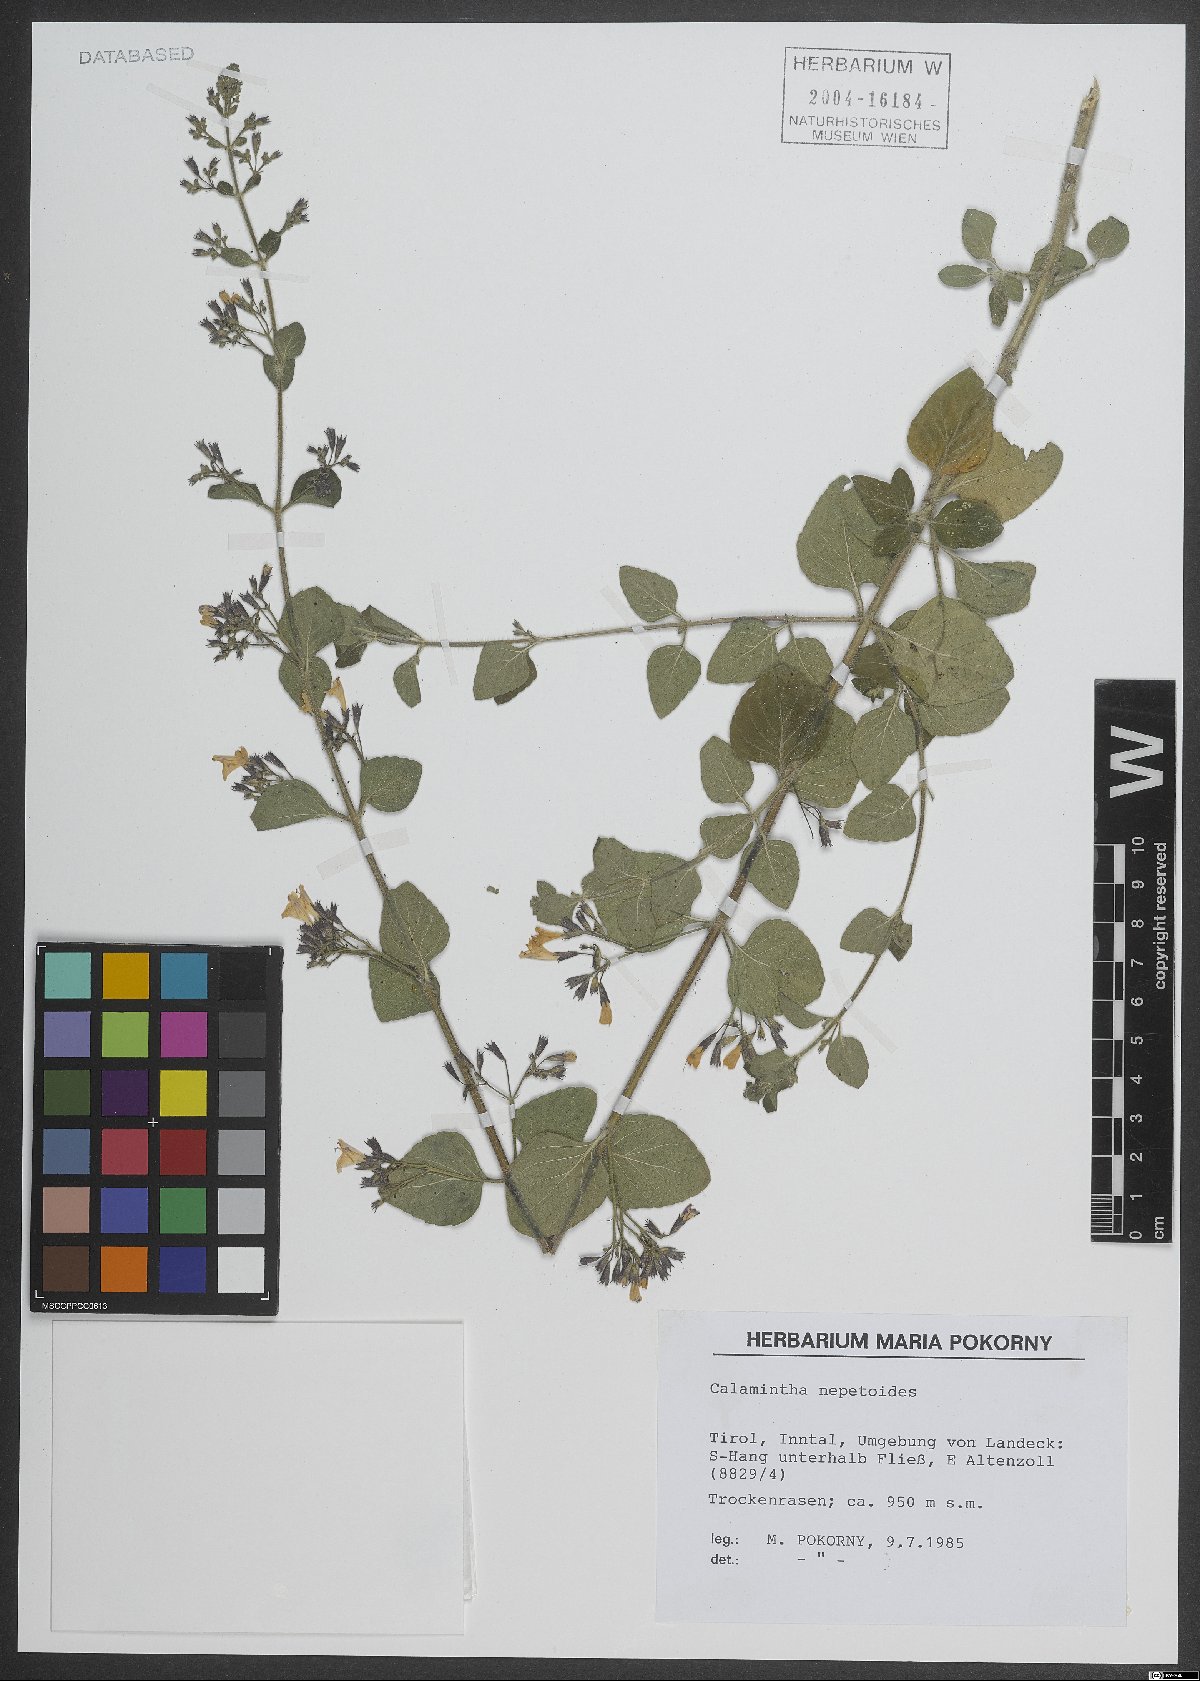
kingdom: Plantae
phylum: Tracheophyta
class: Magnoliopsida
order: Lamiales
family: Lamiaceae
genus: Clinopodium
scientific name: Clinopodium nepeta
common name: Lesser calamint
